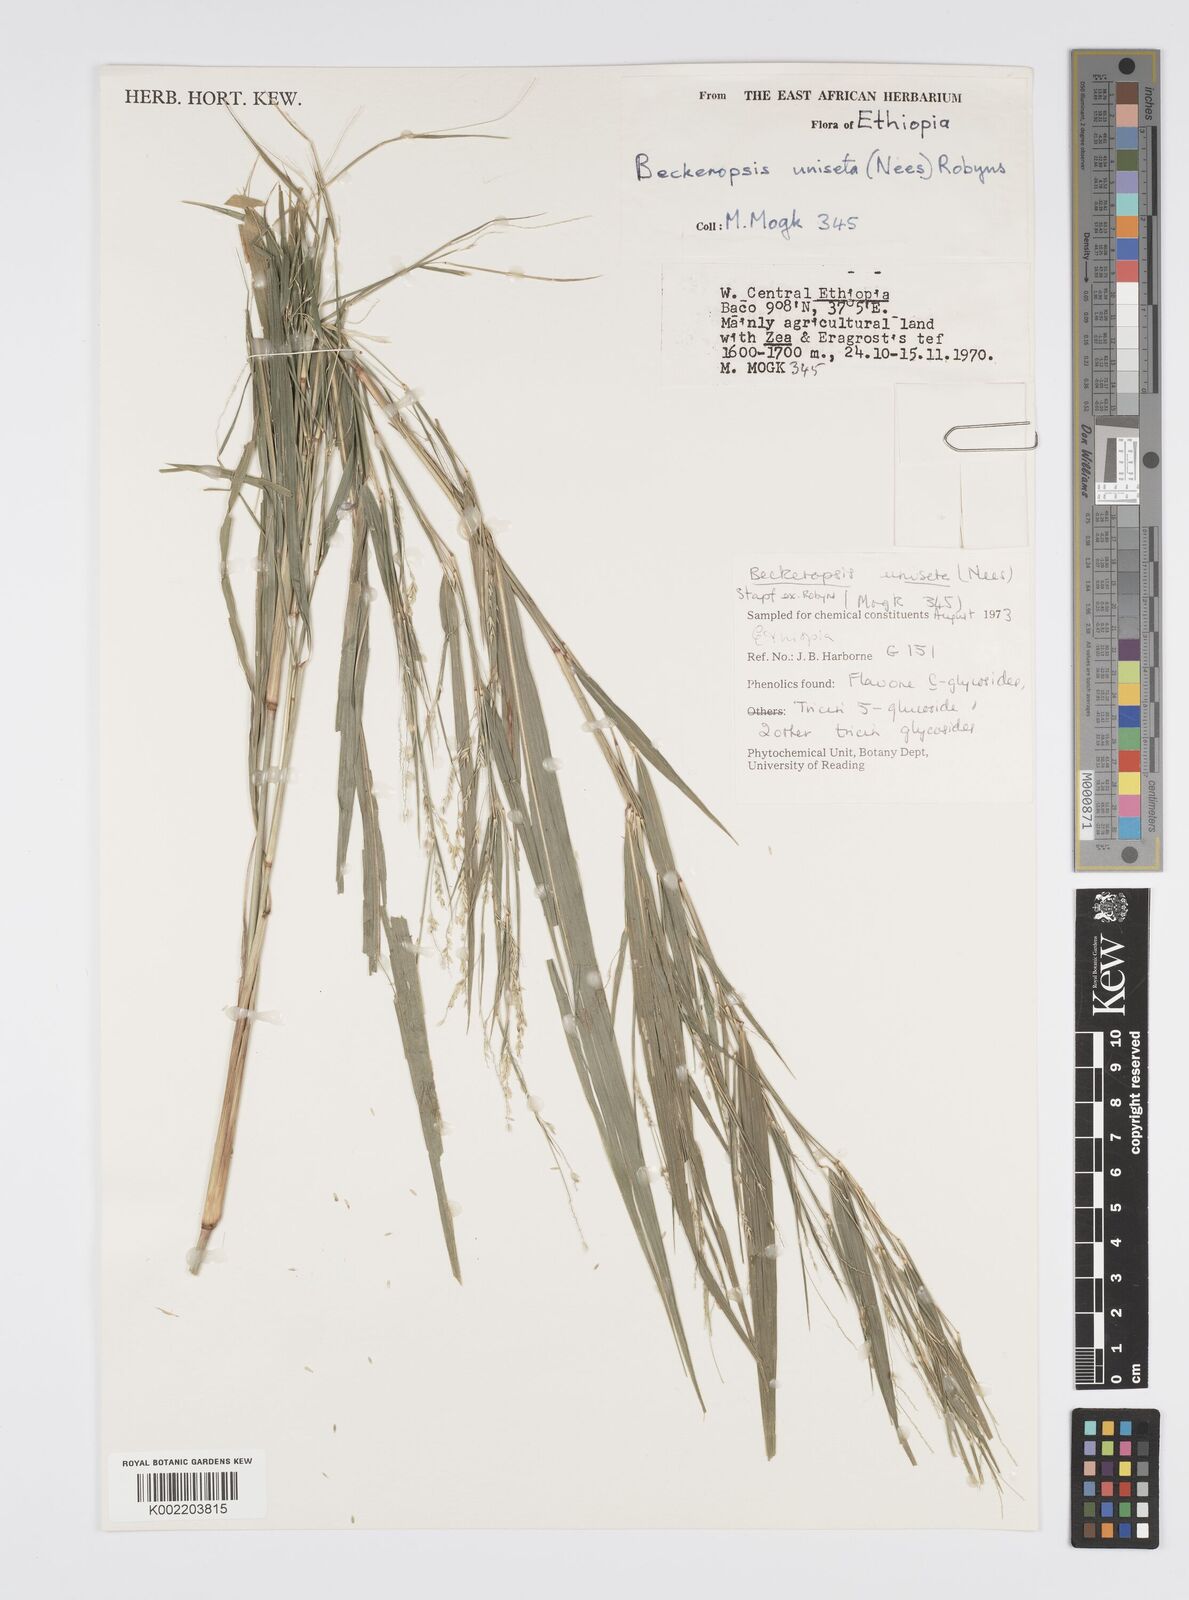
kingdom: Plantae
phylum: Tracheophyta
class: Liliopsida
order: Poales
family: Poaceae
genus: Cenchrus
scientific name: Cenchrus unisetus
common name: Natal grass
